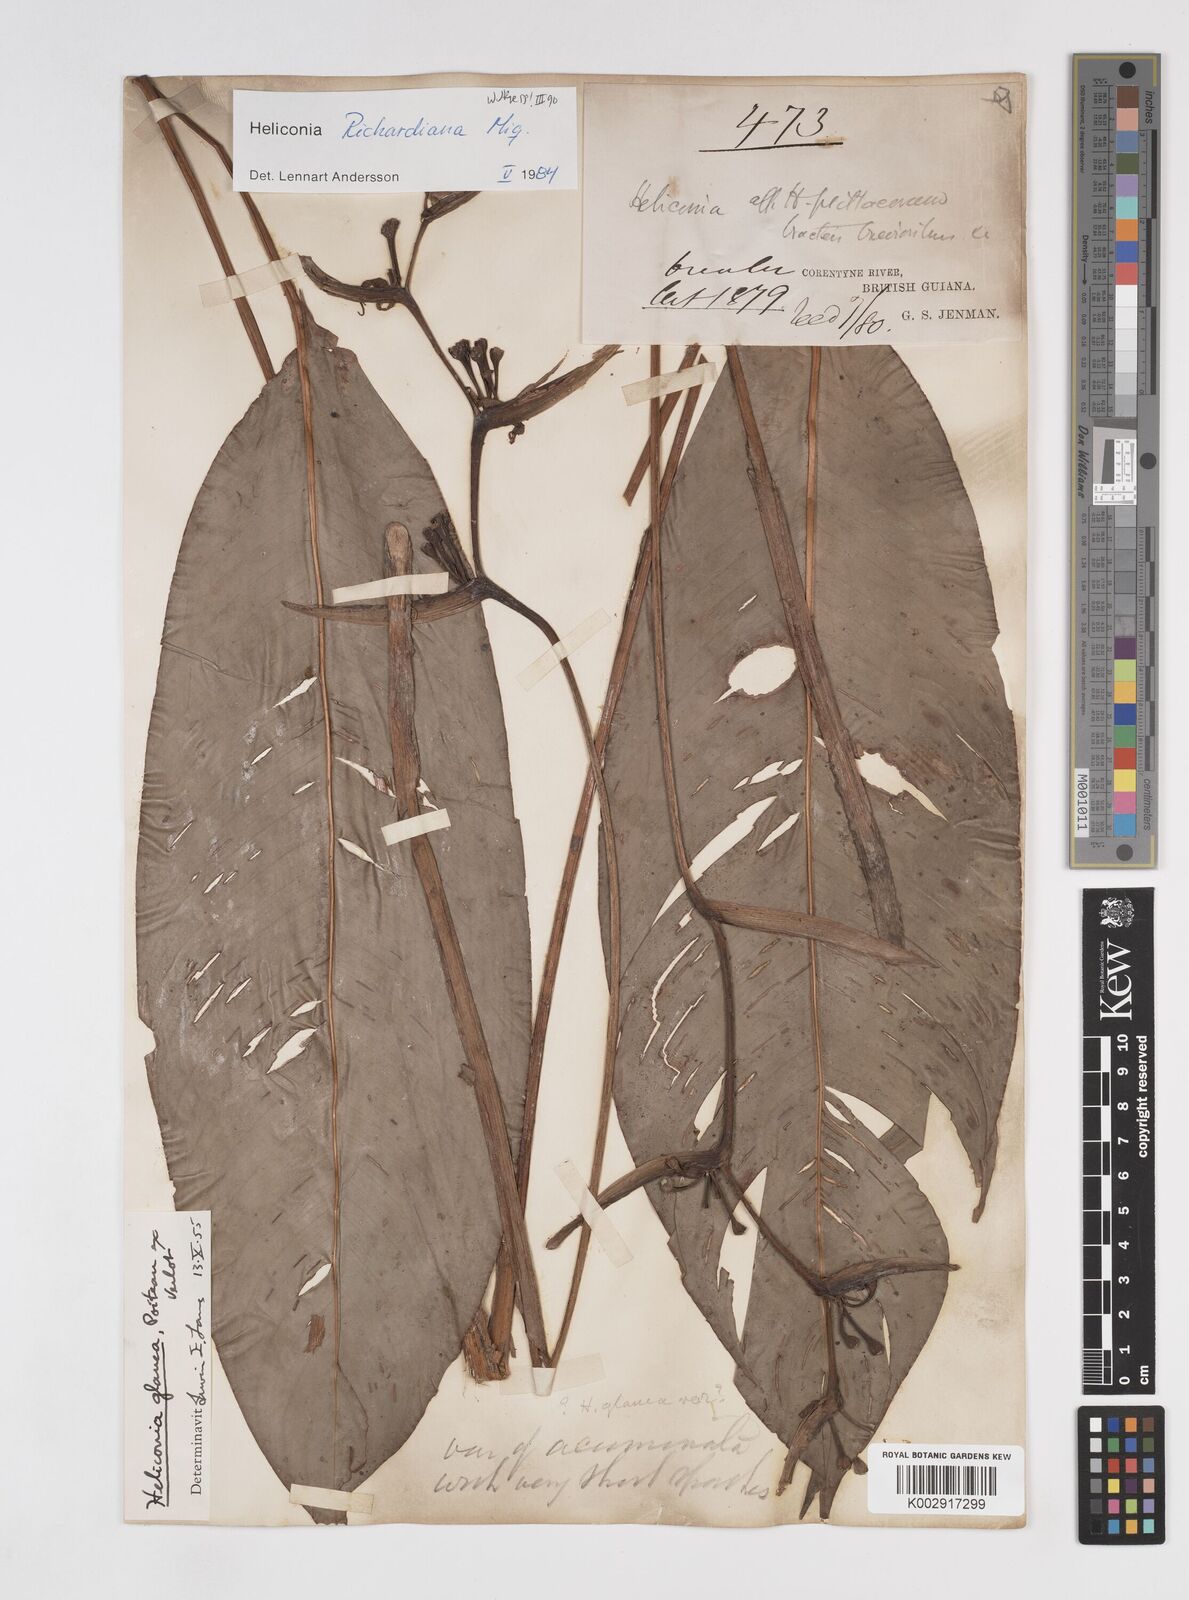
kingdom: Plantae
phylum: Tracheophyta
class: Liliopsida
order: Zingiberales
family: Heliconiaceae
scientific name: Heliconiaceae
